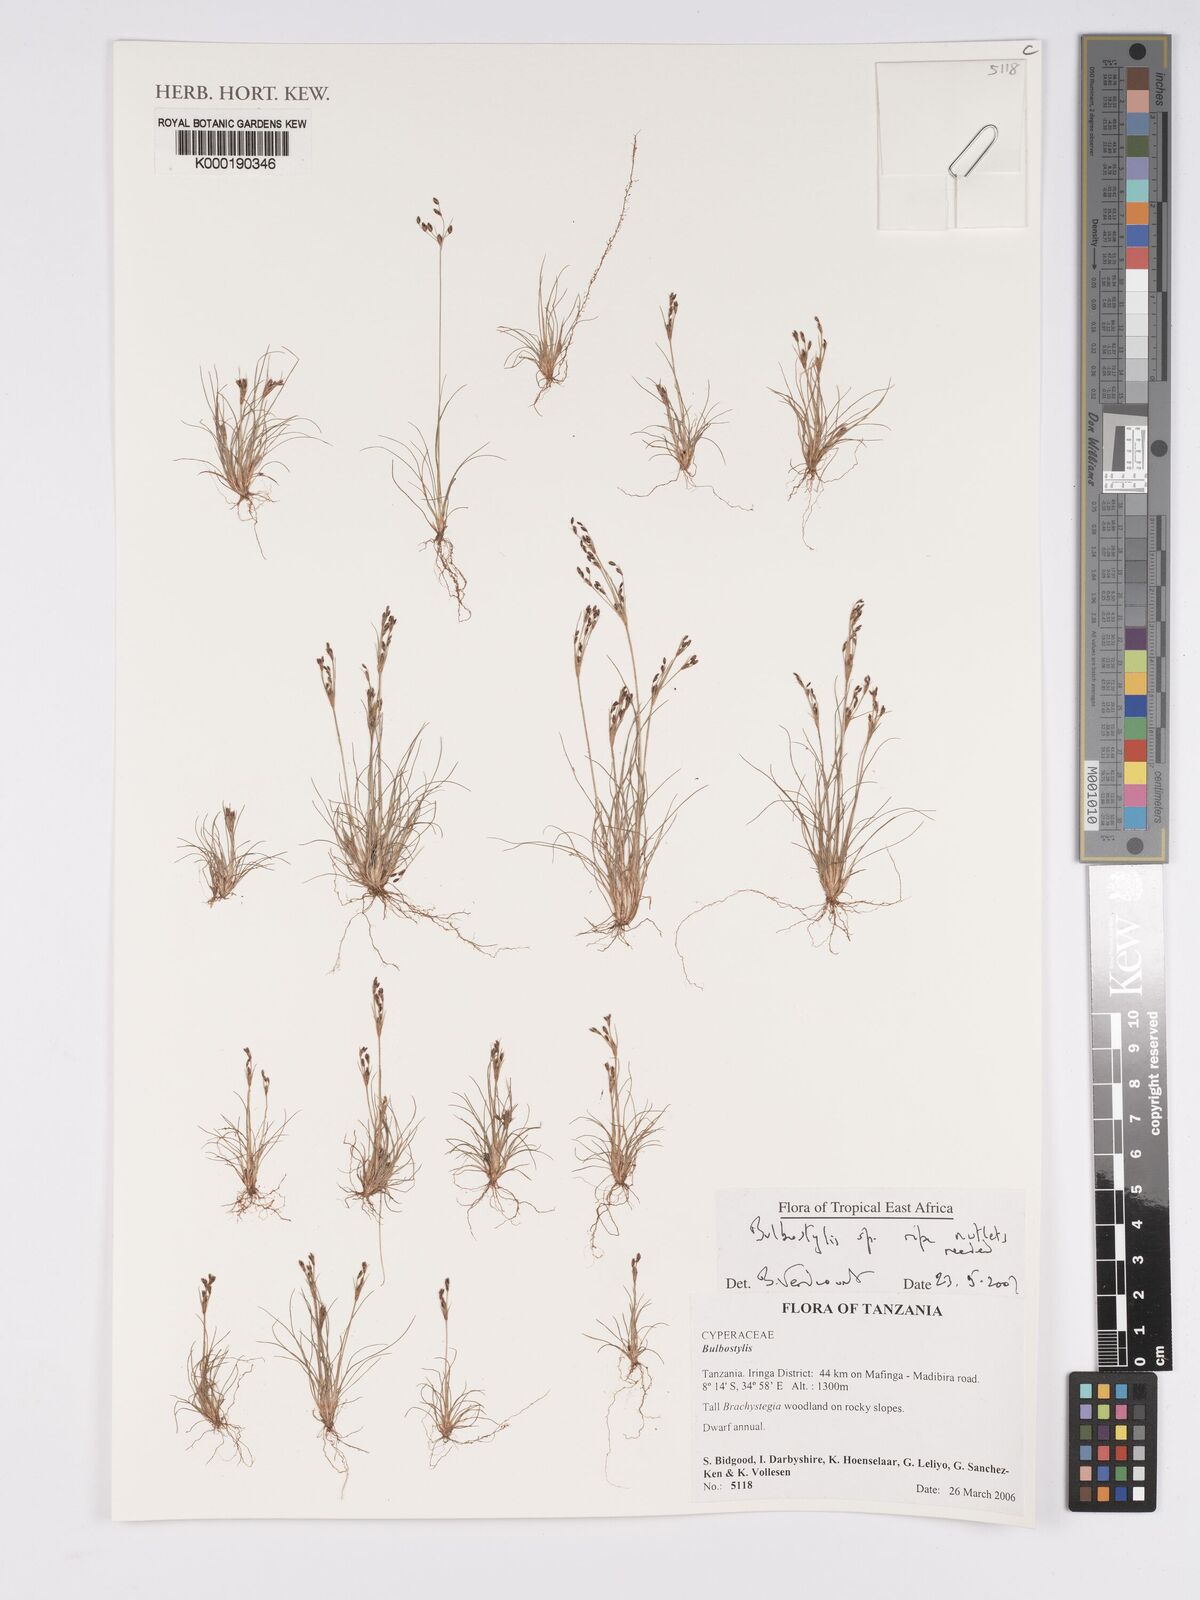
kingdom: Plantae
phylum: Tracheophyta
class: Liliopsida
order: Poales
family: Cyperaceae
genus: Bulbostylis
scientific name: Bulbostylis
